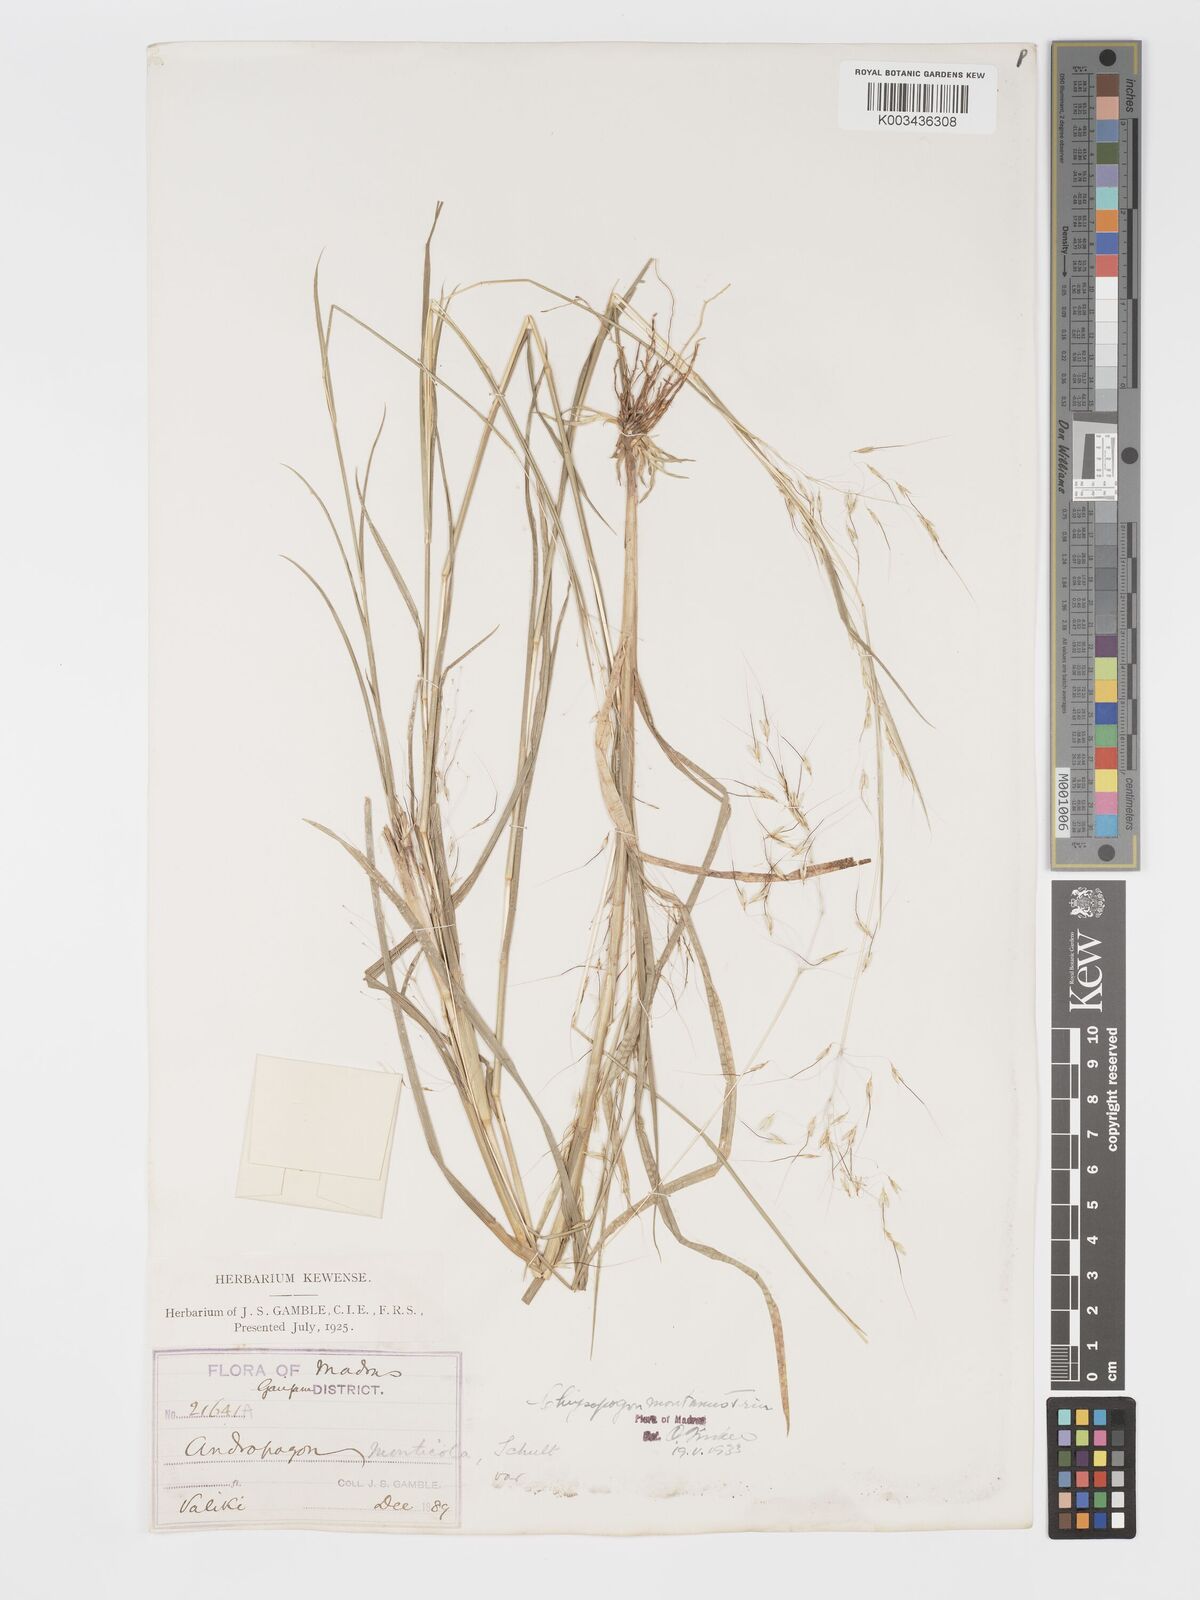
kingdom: Plantae
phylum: Tracheophyta
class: Liliopsida
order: Poales
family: Poaceae
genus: Chrysopogon
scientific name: Chrysopogon fulvus
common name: Red false beardgrass
